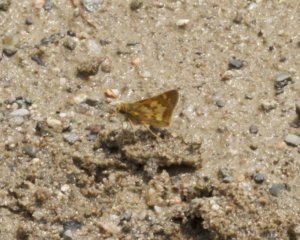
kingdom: Animalia
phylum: Arthropoda
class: Insecta
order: Lepidoptera
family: Hesperiidae
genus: Polites
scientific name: Polites coras
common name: Peck's Skipper
